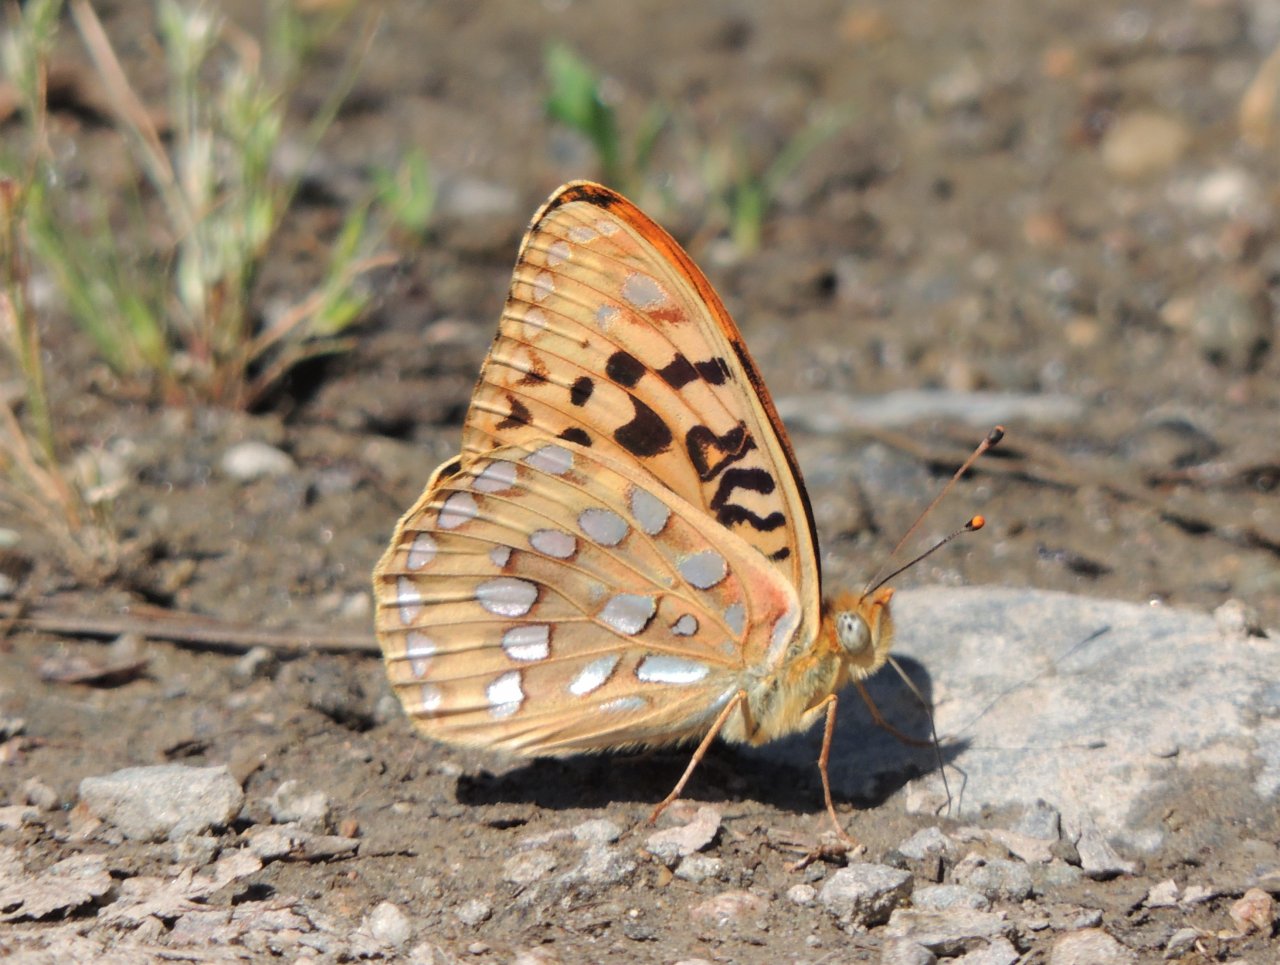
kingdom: Animalia
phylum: Arthropoda
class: Insecta
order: Lepidoptera
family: Nymphalidae
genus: Speyeria
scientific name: Speyeria coronis
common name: Coronis Fritillary
